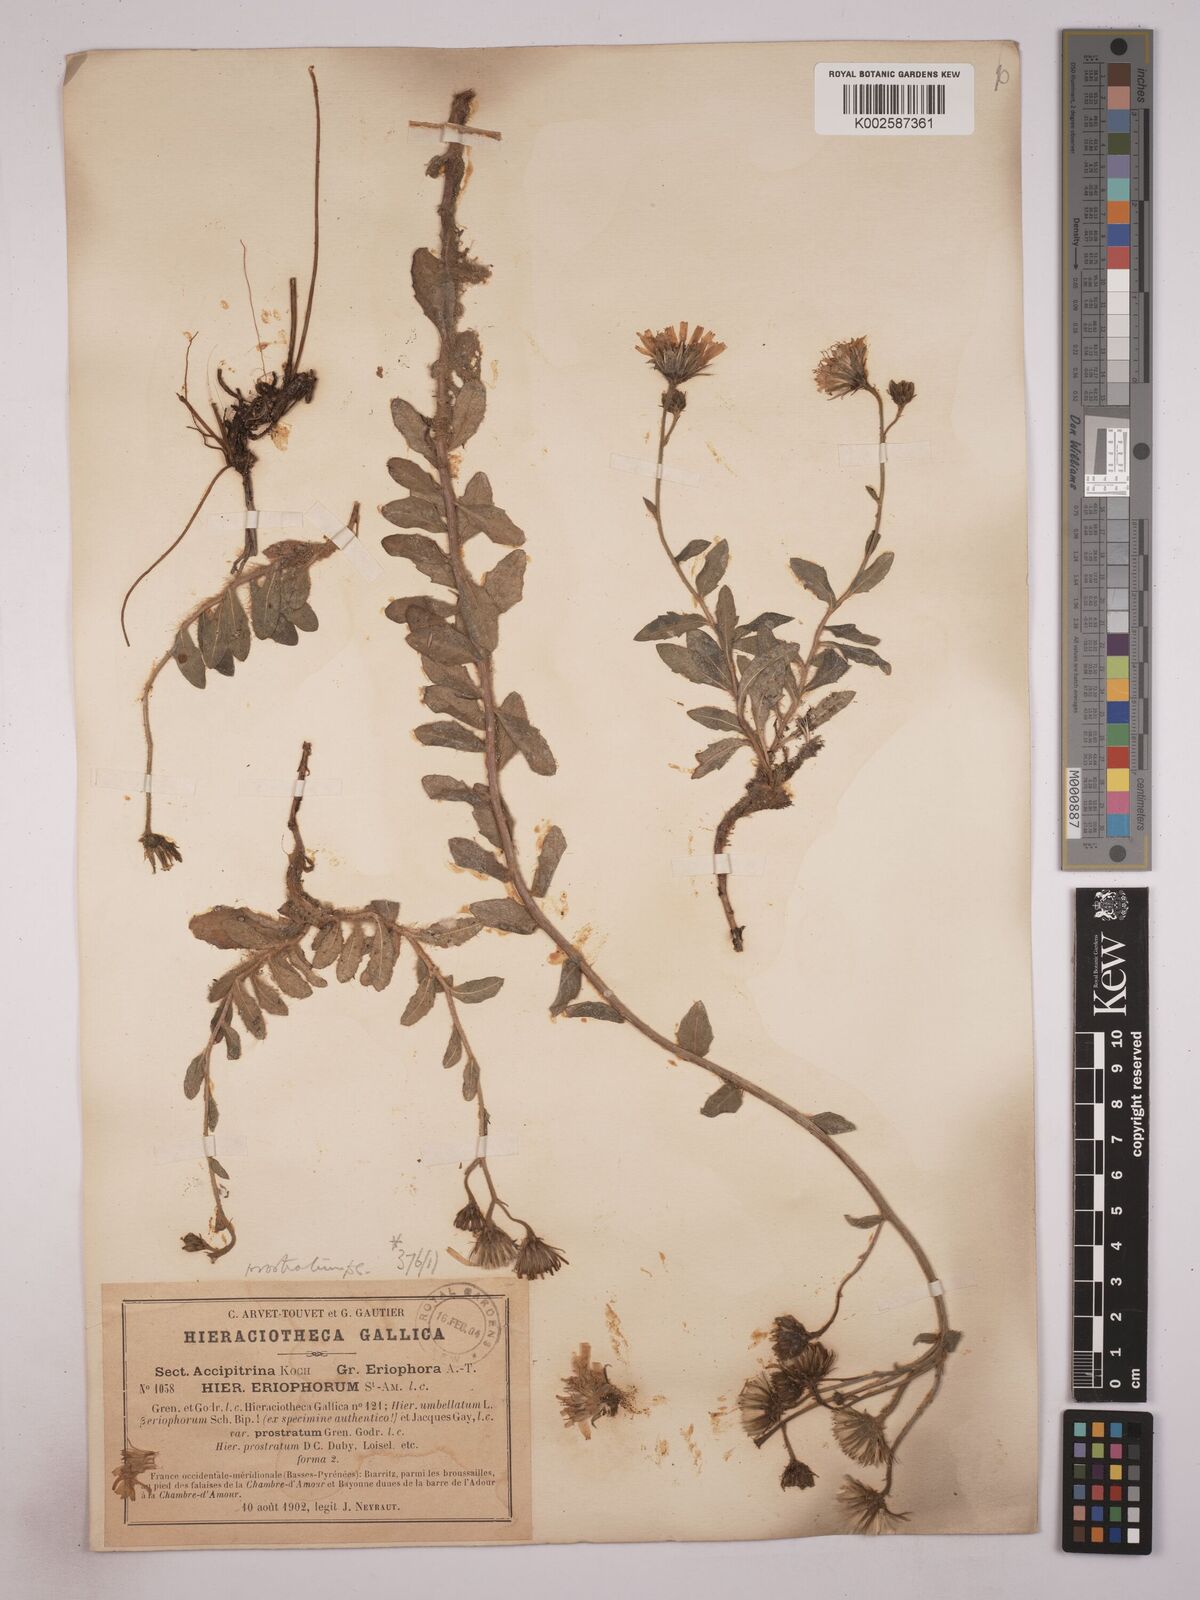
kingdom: Plantae
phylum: Tracheophyta
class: Magnoliopsida
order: Asterales
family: Asteraceae
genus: Hieracium
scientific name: Hieracium prostratum
